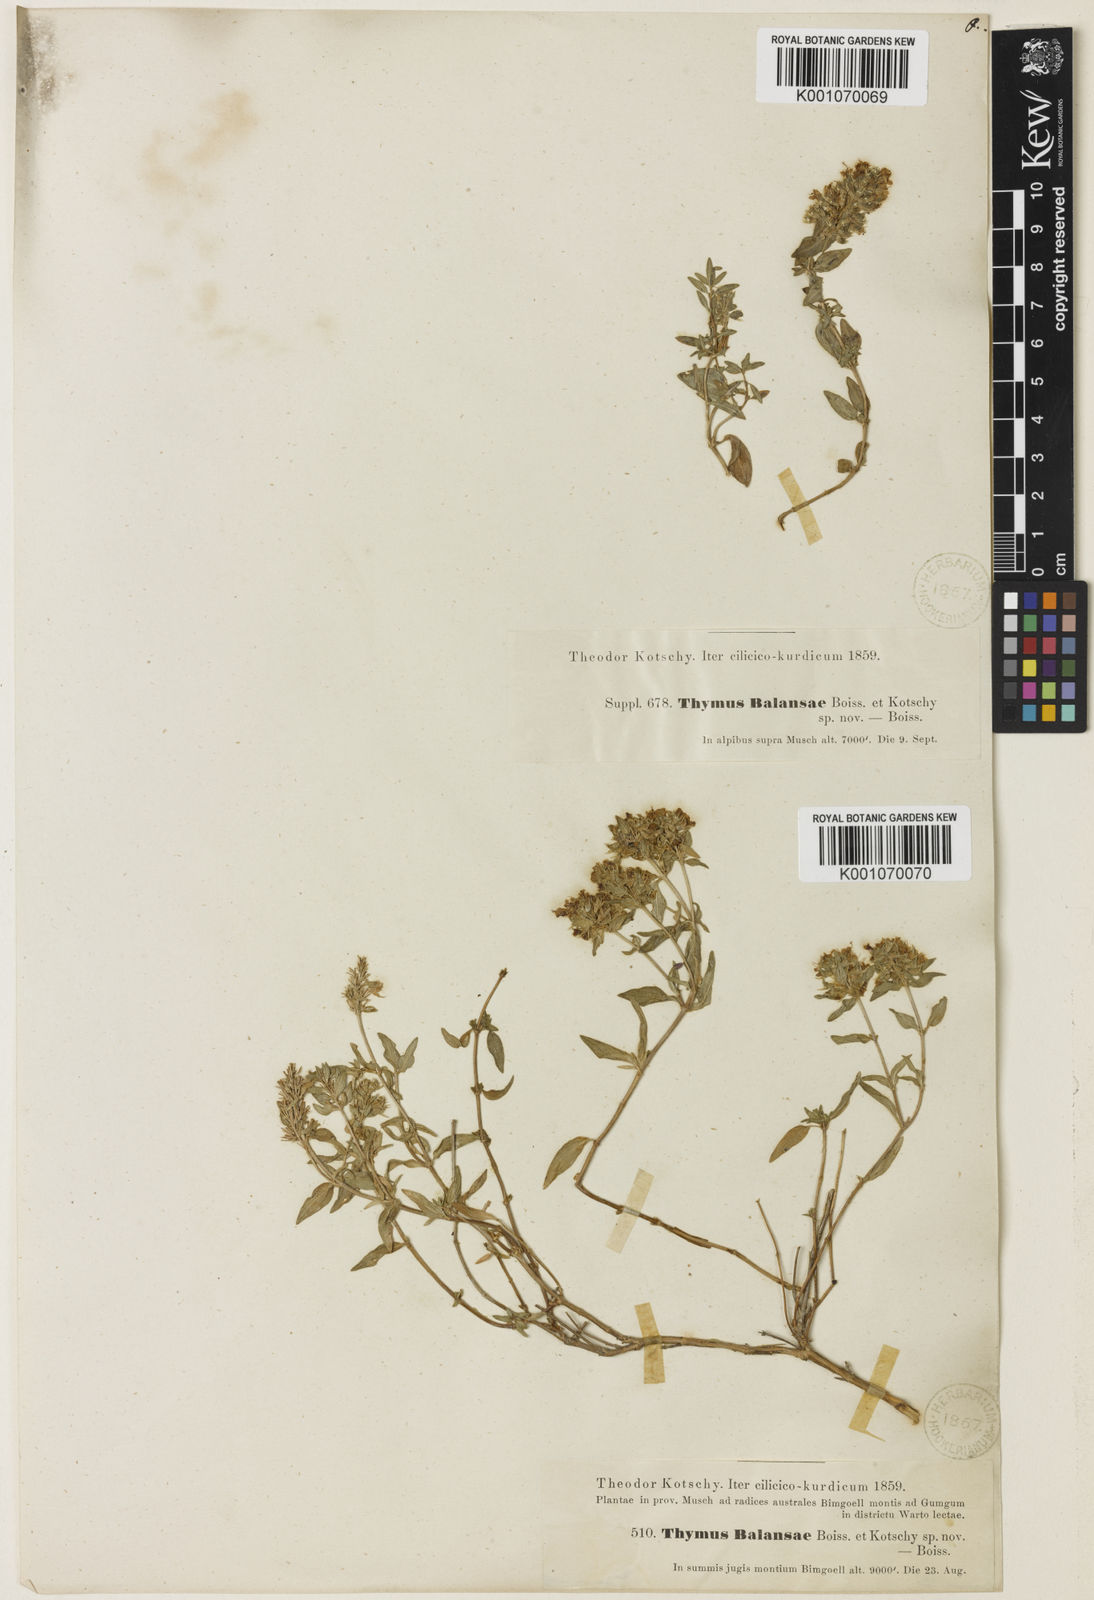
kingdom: Plantae
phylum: Tracheophyta
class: Magnoliopsida
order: Lamiales
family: Lamiaceae
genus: Thymus
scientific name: Thymus fallax
